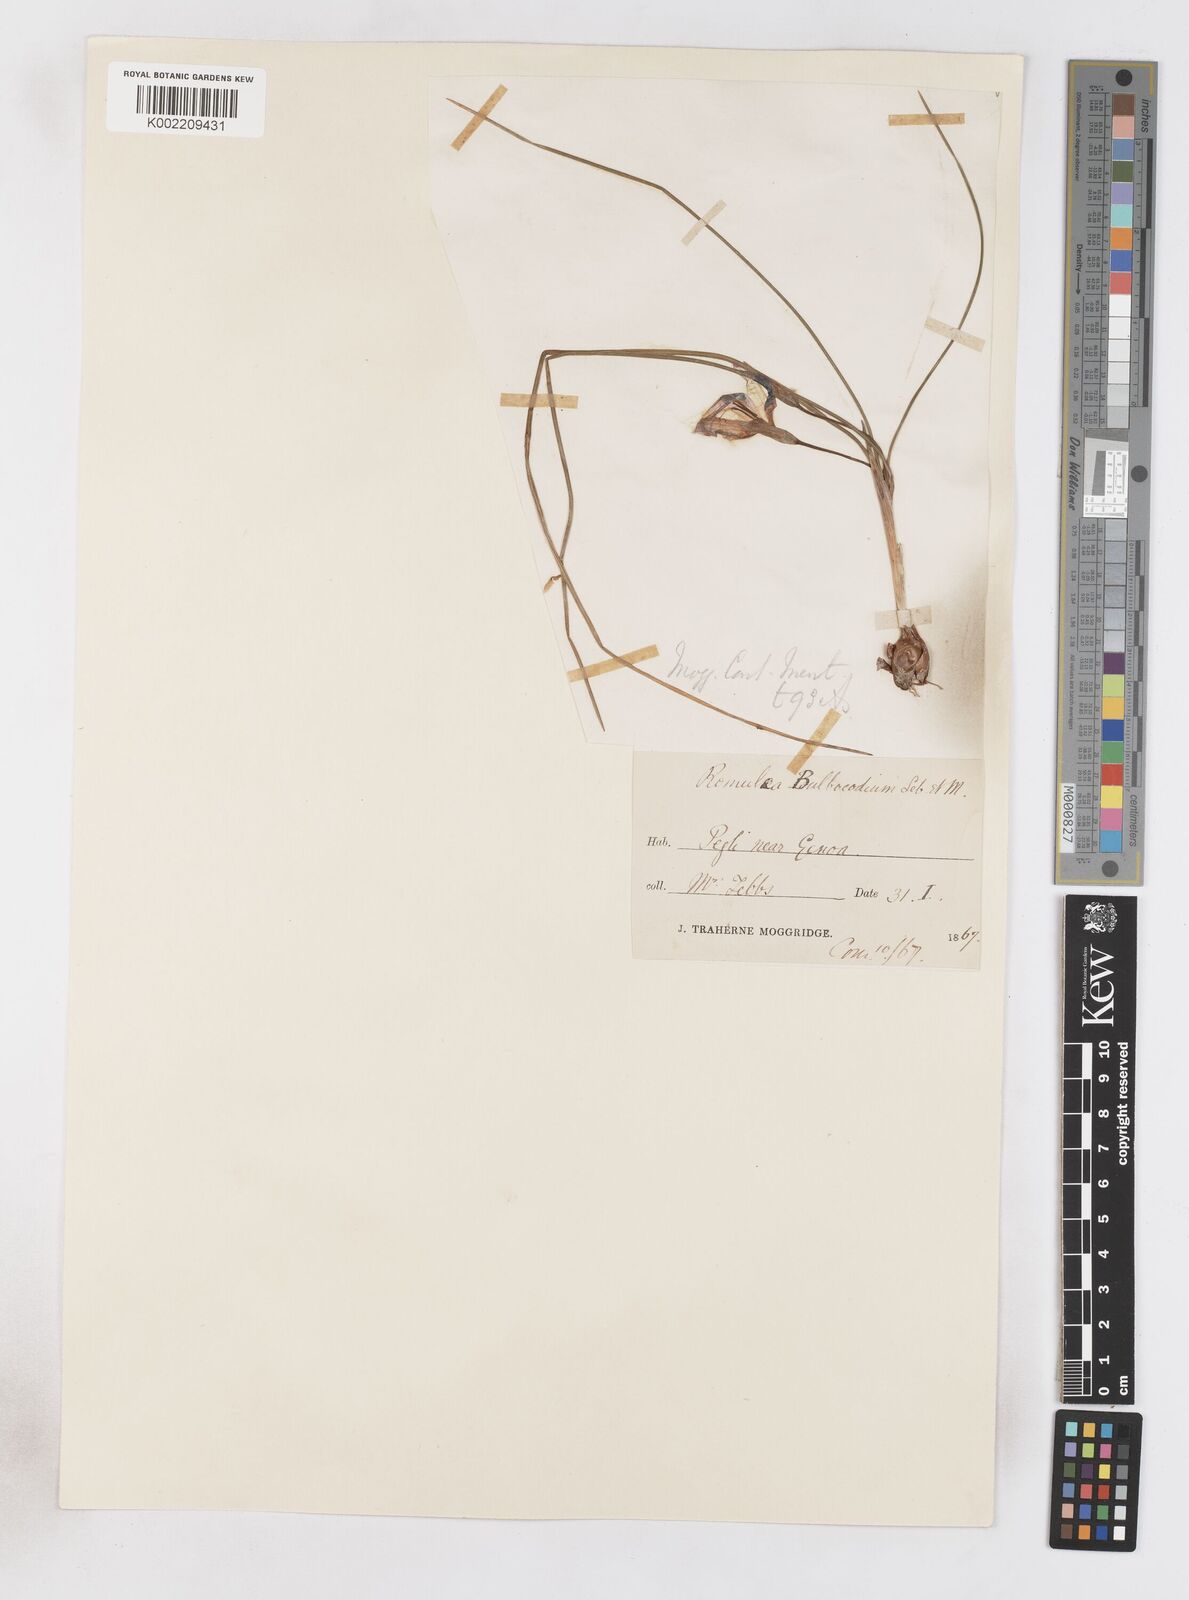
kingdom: Plantae
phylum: Tracheophyta
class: Liliopsida
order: Asparagales
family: Iridaceae
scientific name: Iridaceae
